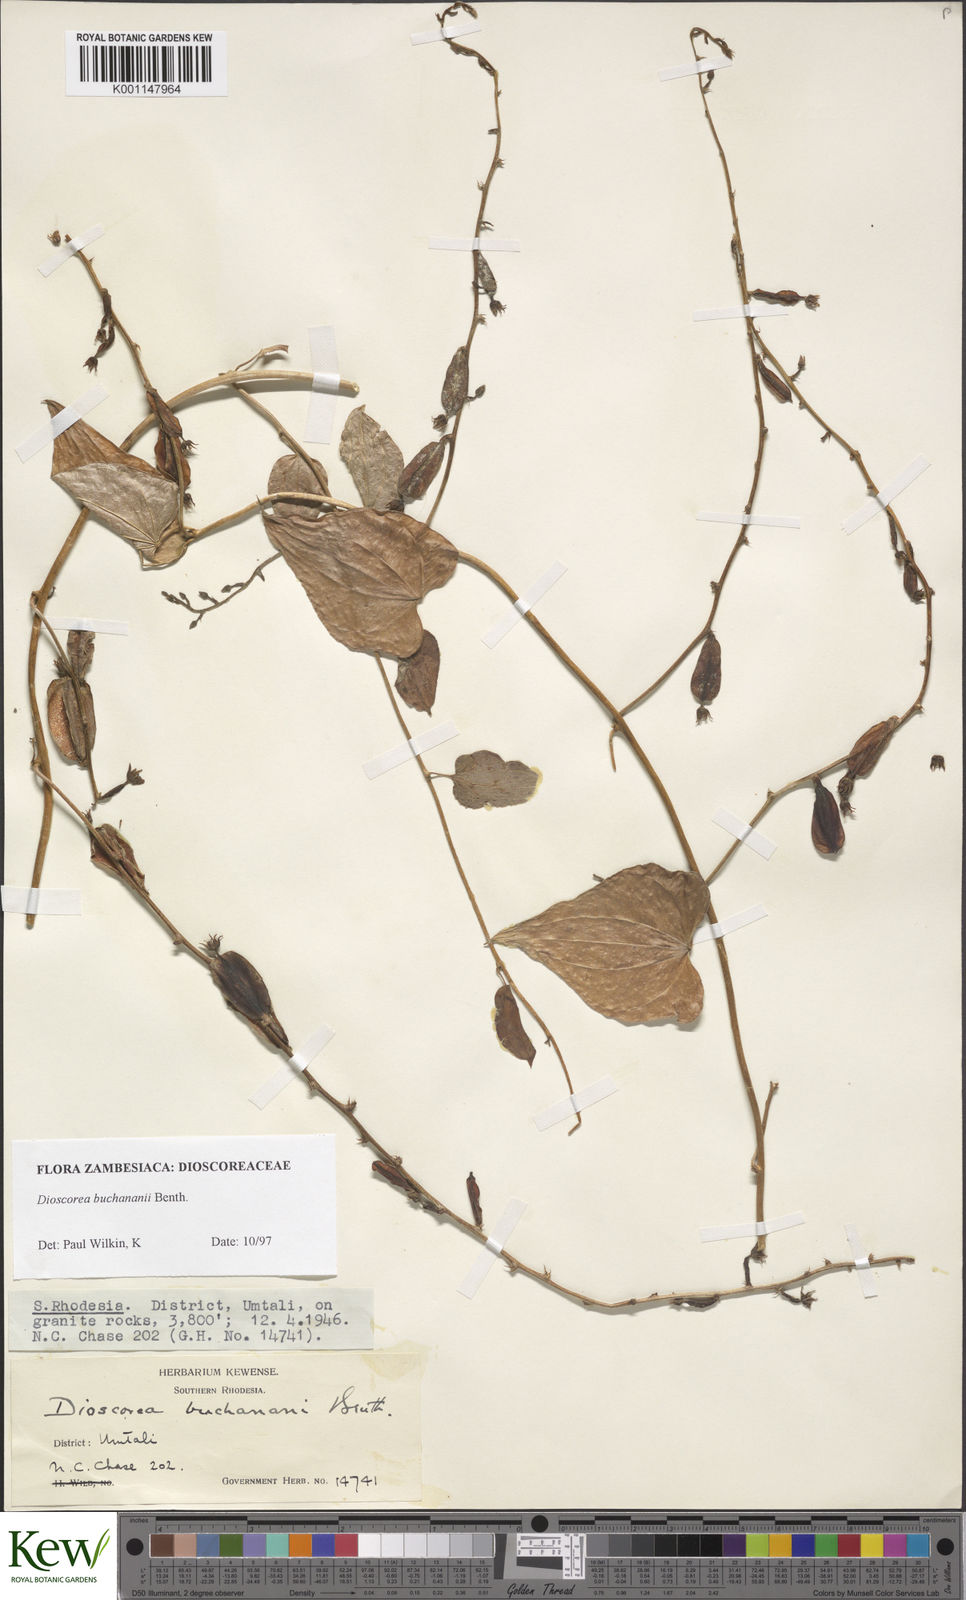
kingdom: Plantae
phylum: Tracheophyta
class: Liliopsida
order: Dioscoreales
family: Dioscoreaceae
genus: Dioscorea
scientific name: Dioscorea buchananii
